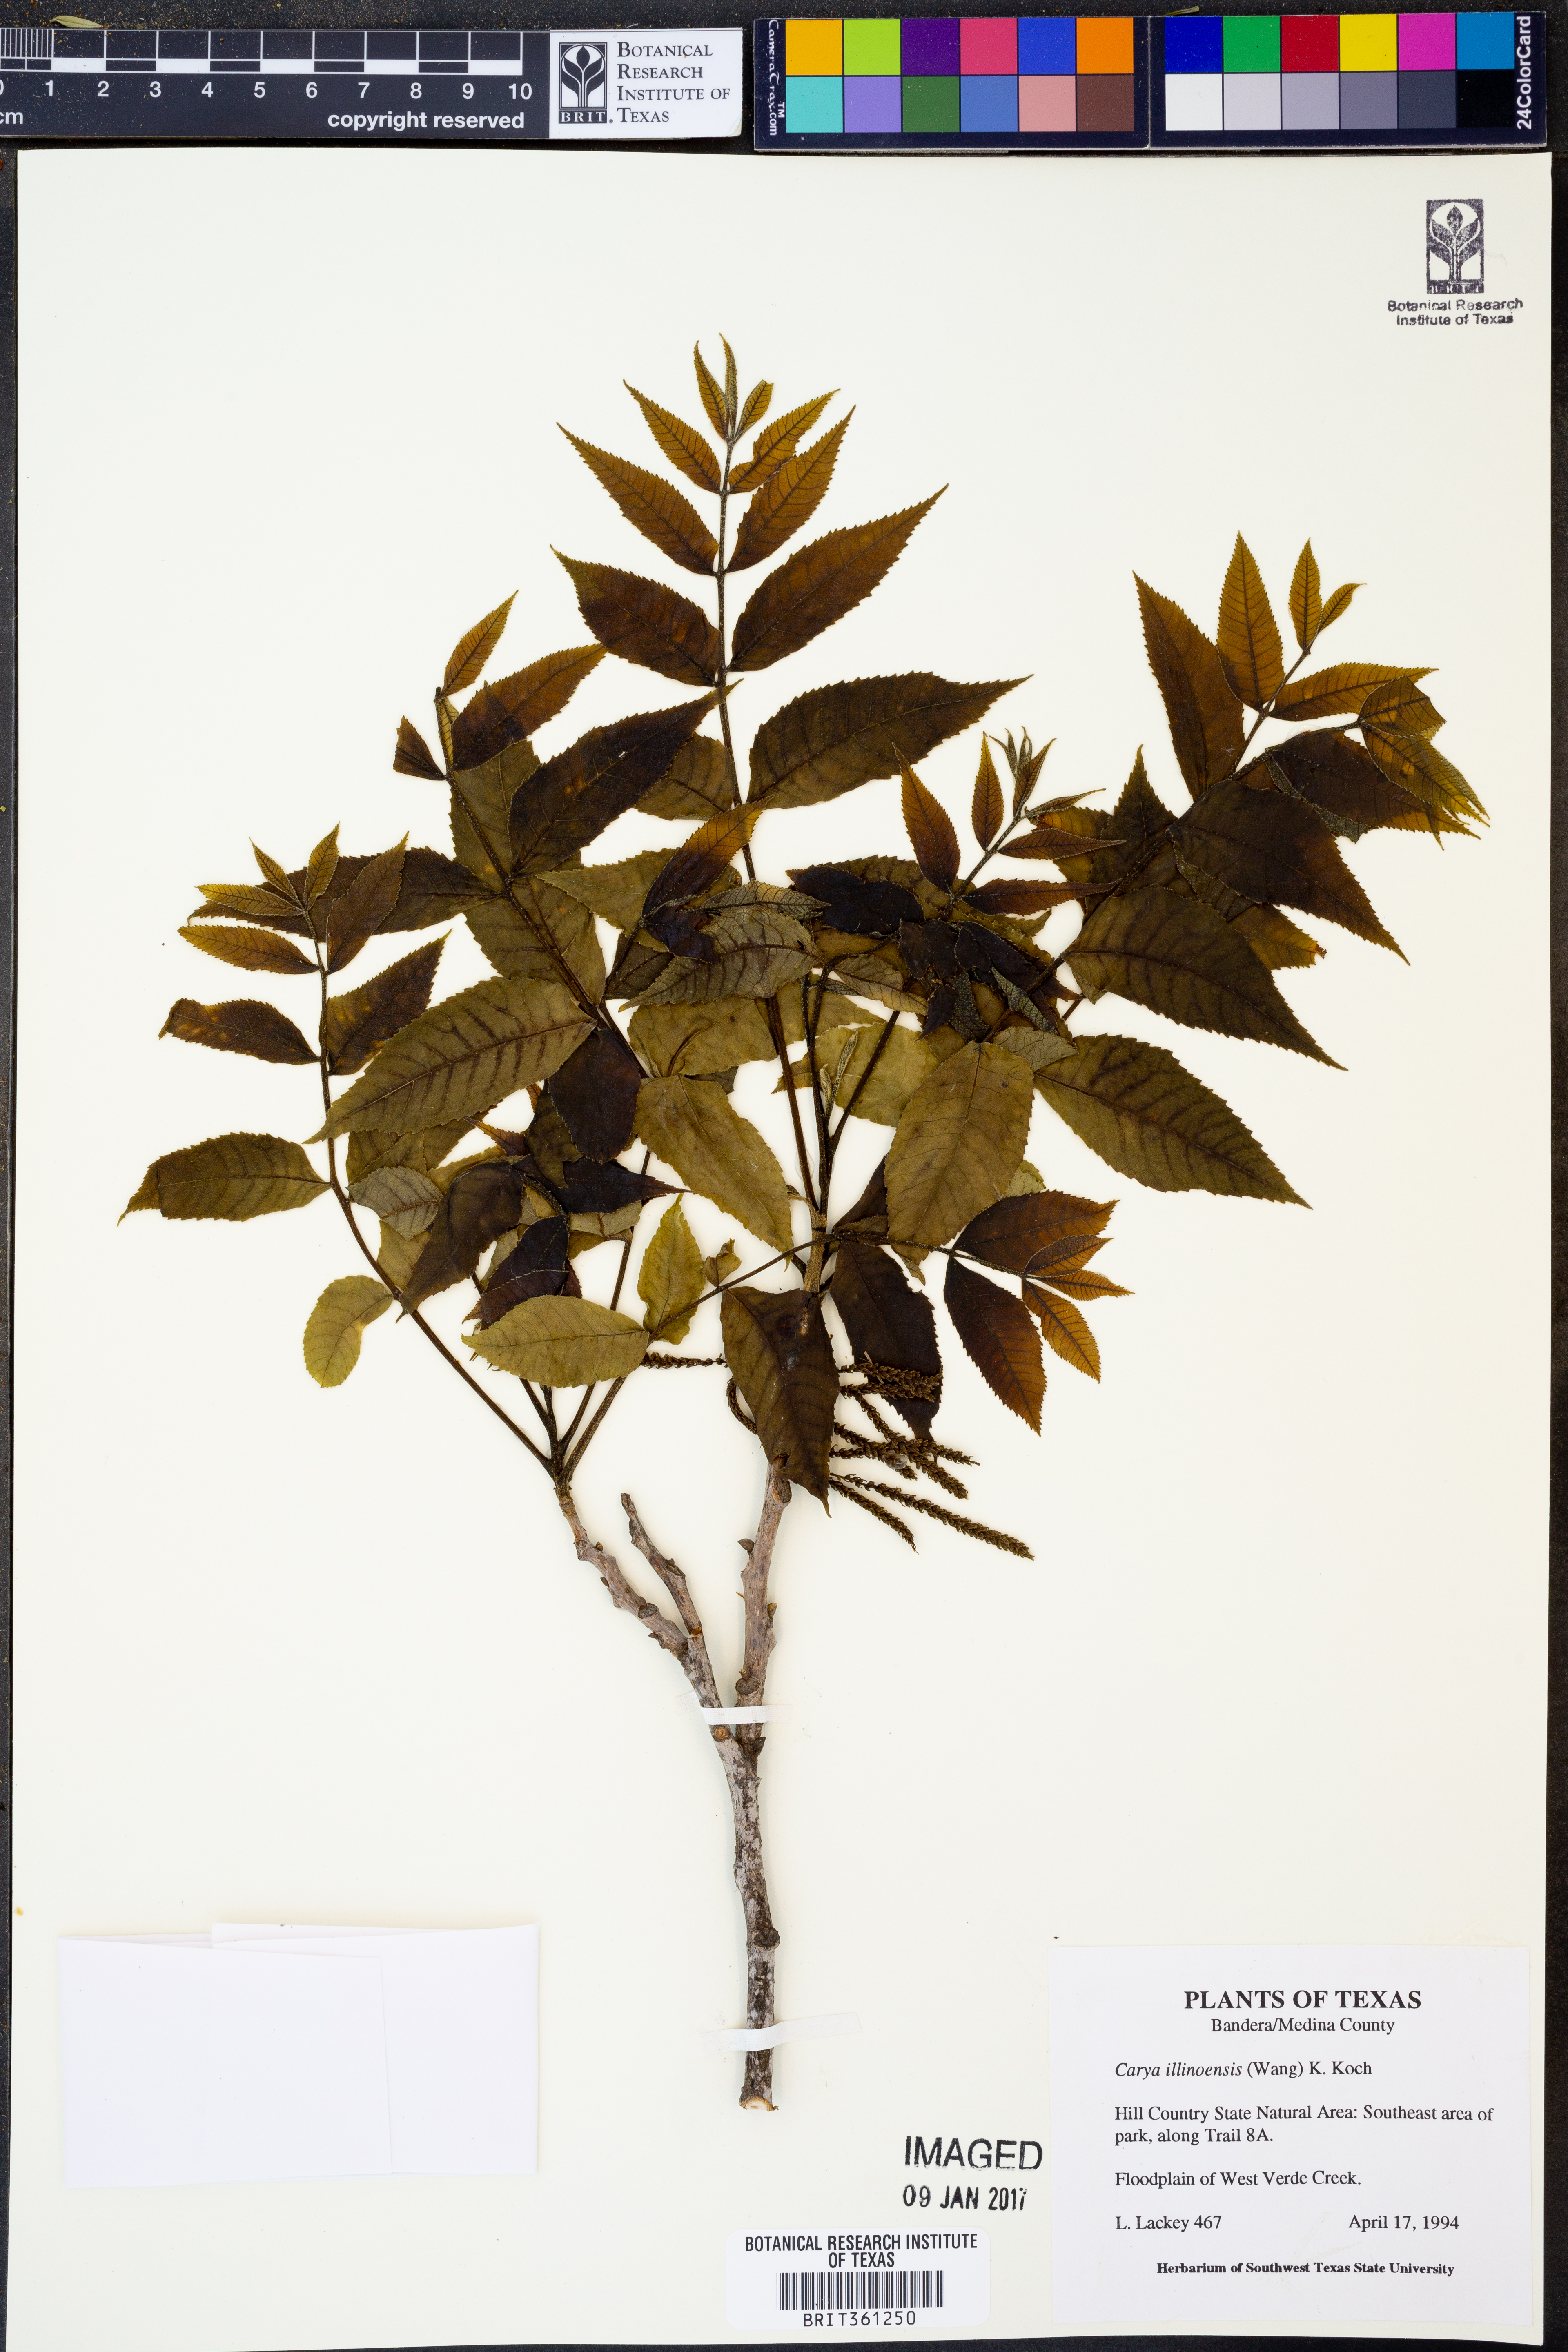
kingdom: Plantae
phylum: Tracheophyta
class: Magnoliopsida
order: Fagales
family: Juglandaceae
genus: Carya
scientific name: Carya illinoinensis
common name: Pecan
